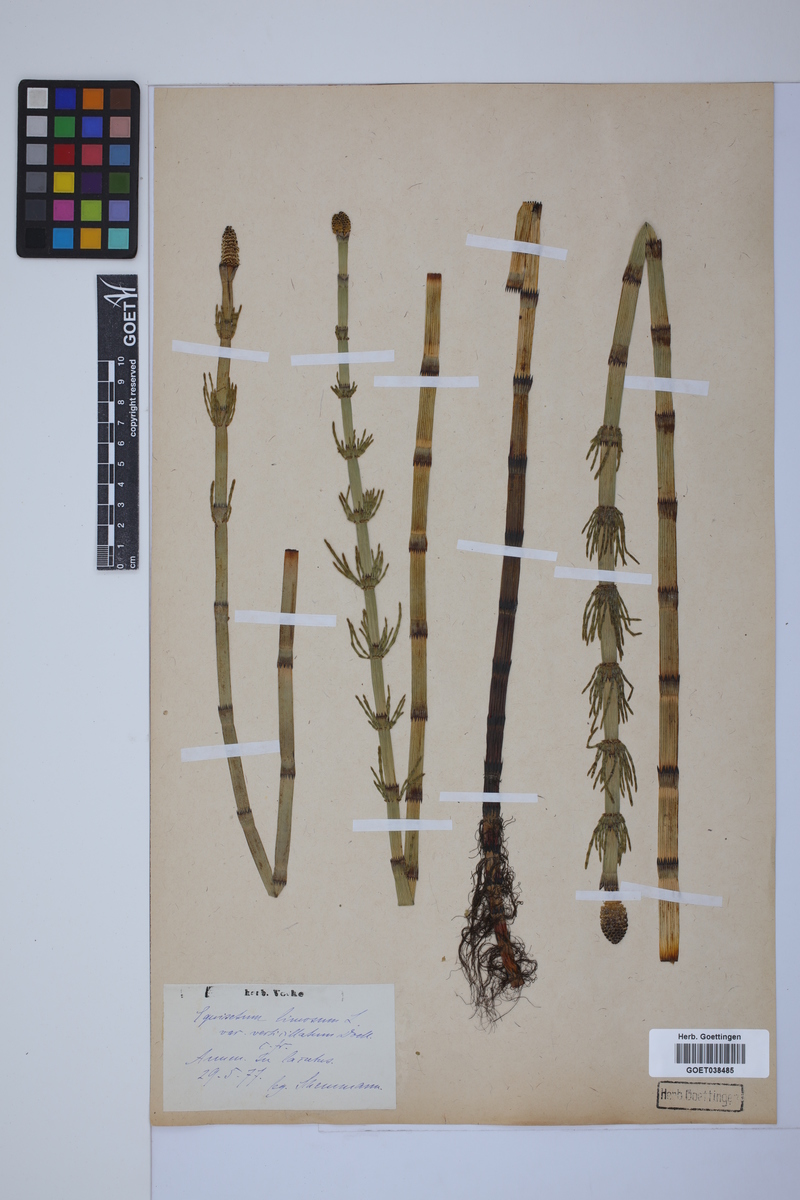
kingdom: Plantae
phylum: Tracheophyta
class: Polypodiopsida
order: Equisetales
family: Equisetaceae
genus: Equisetum
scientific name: Equisetum fluviatile
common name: Water horsetail
